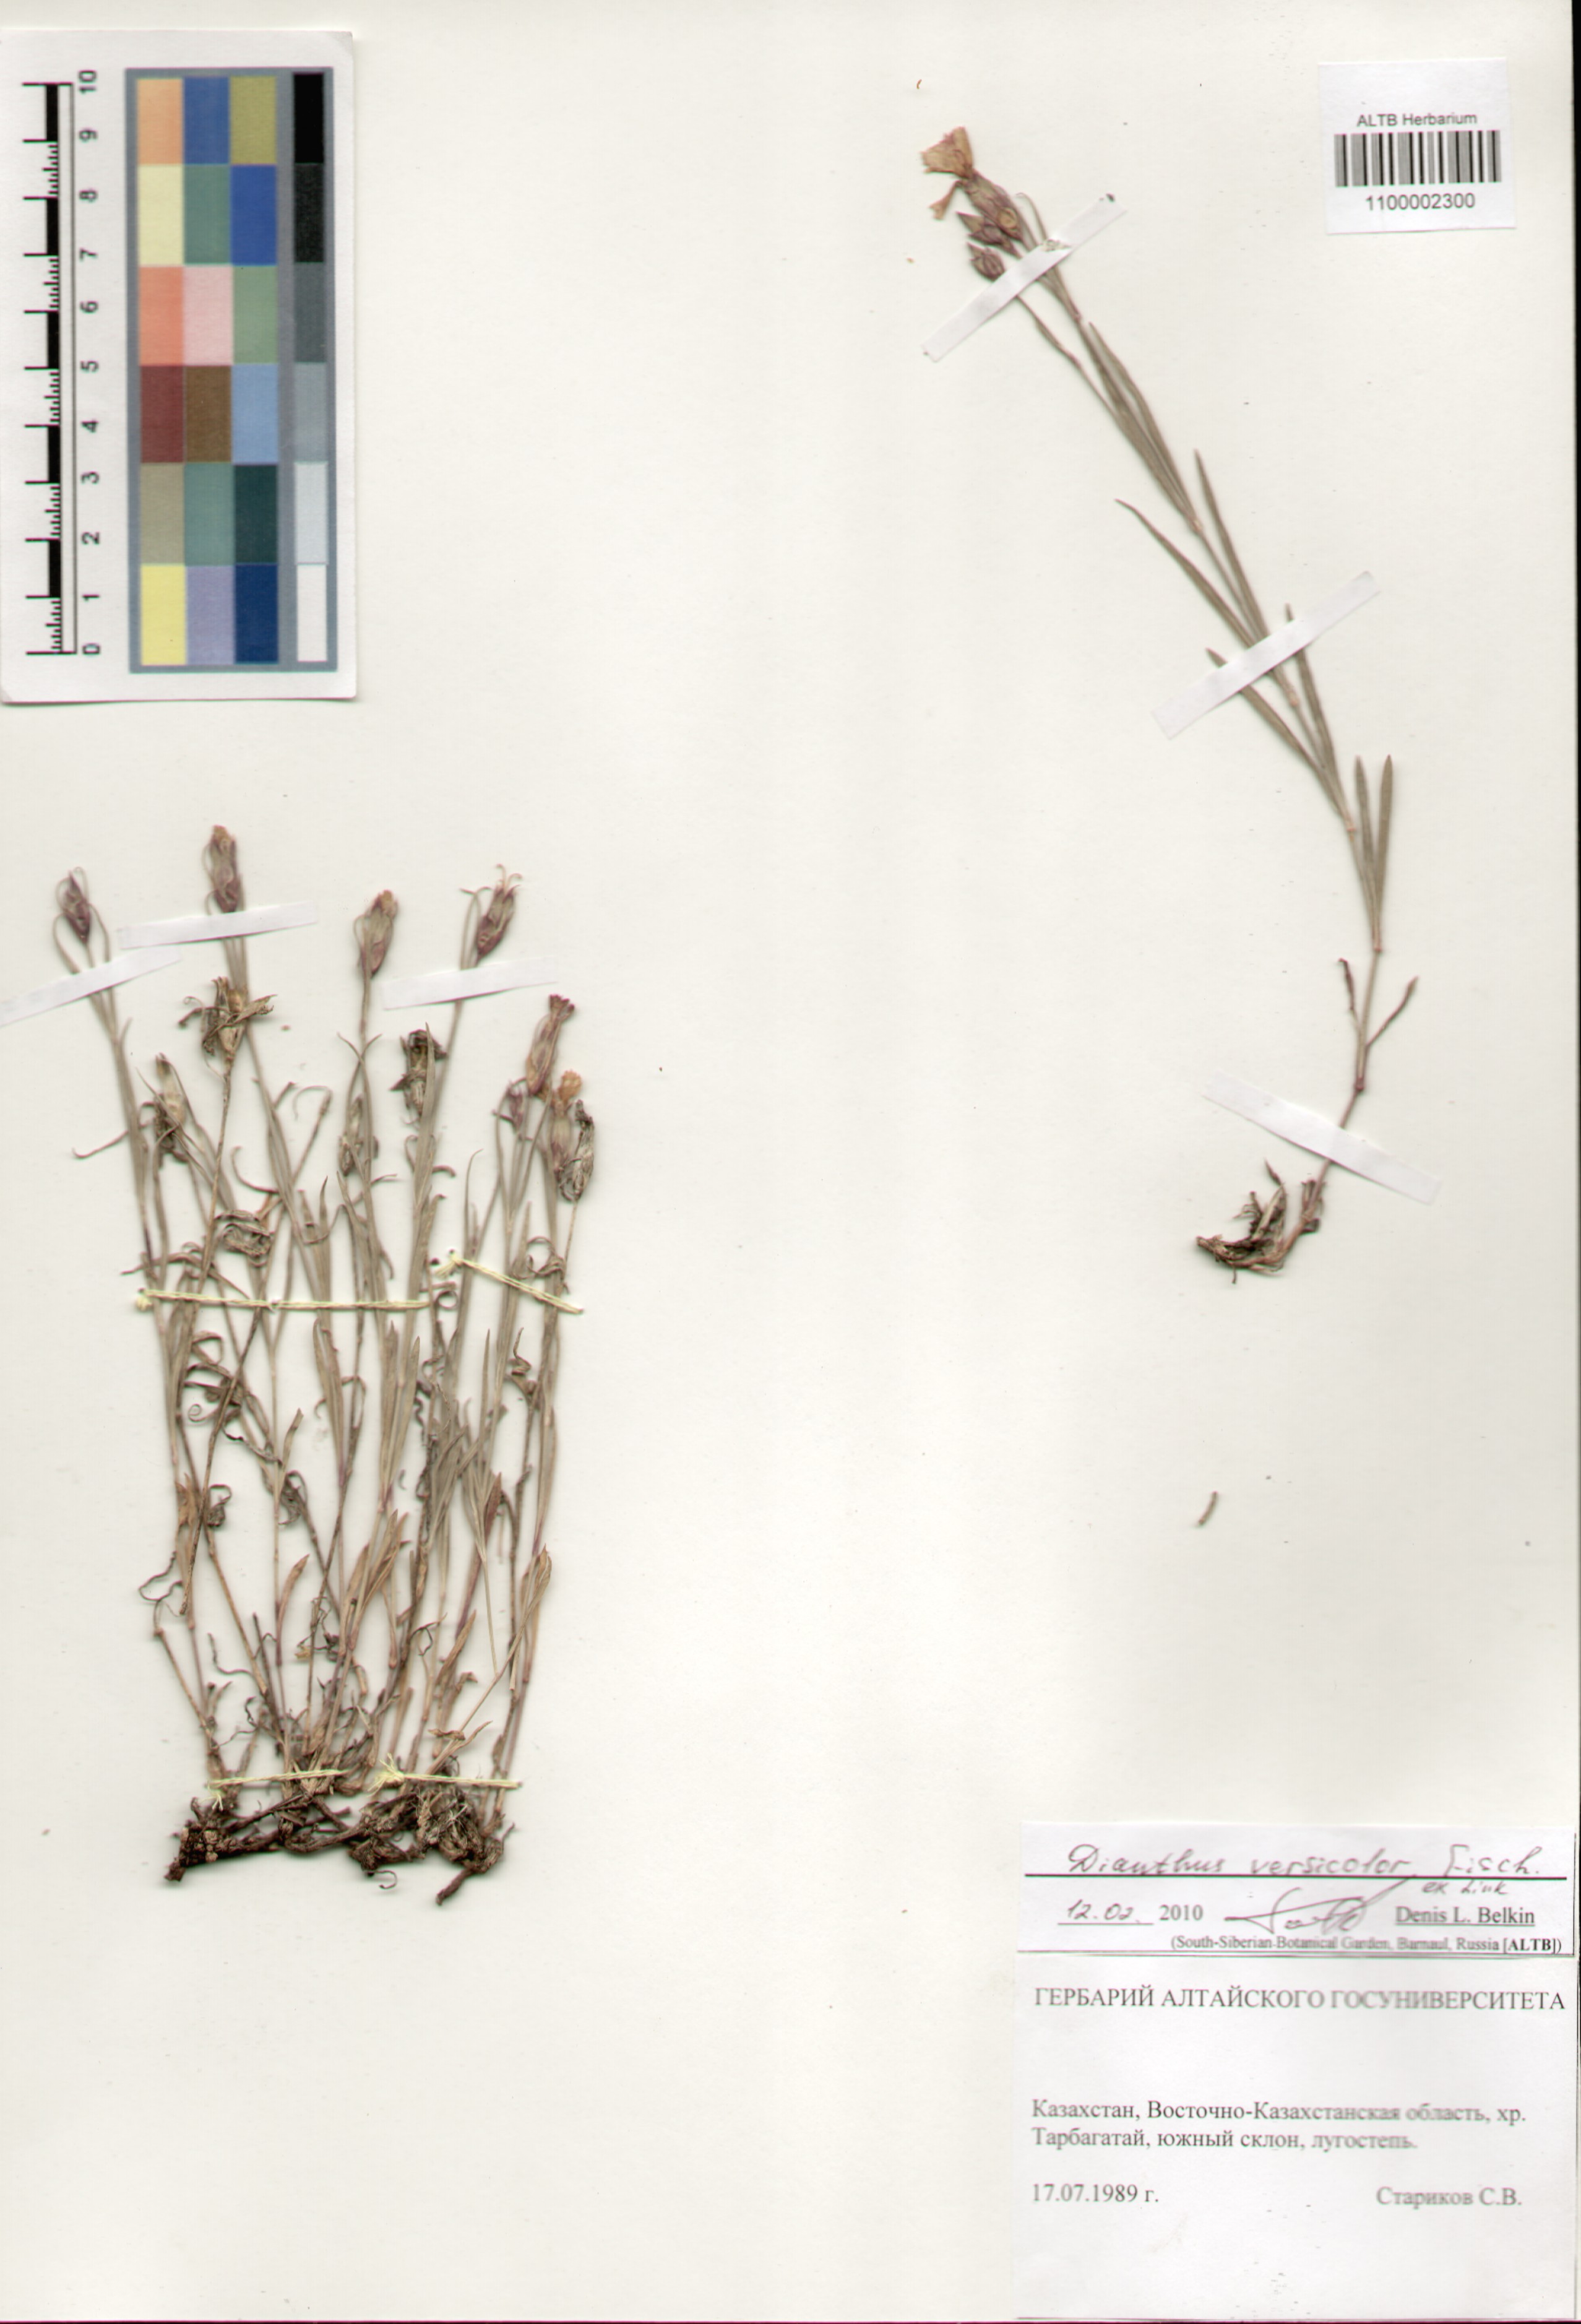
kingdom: Plantae
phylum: Tracheophyta
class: Magnoliopsida
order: Caryophyllales
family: Caryophyllaceae
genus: Dianthus
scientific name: Dianthus chinensis
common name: Rainbow pink
